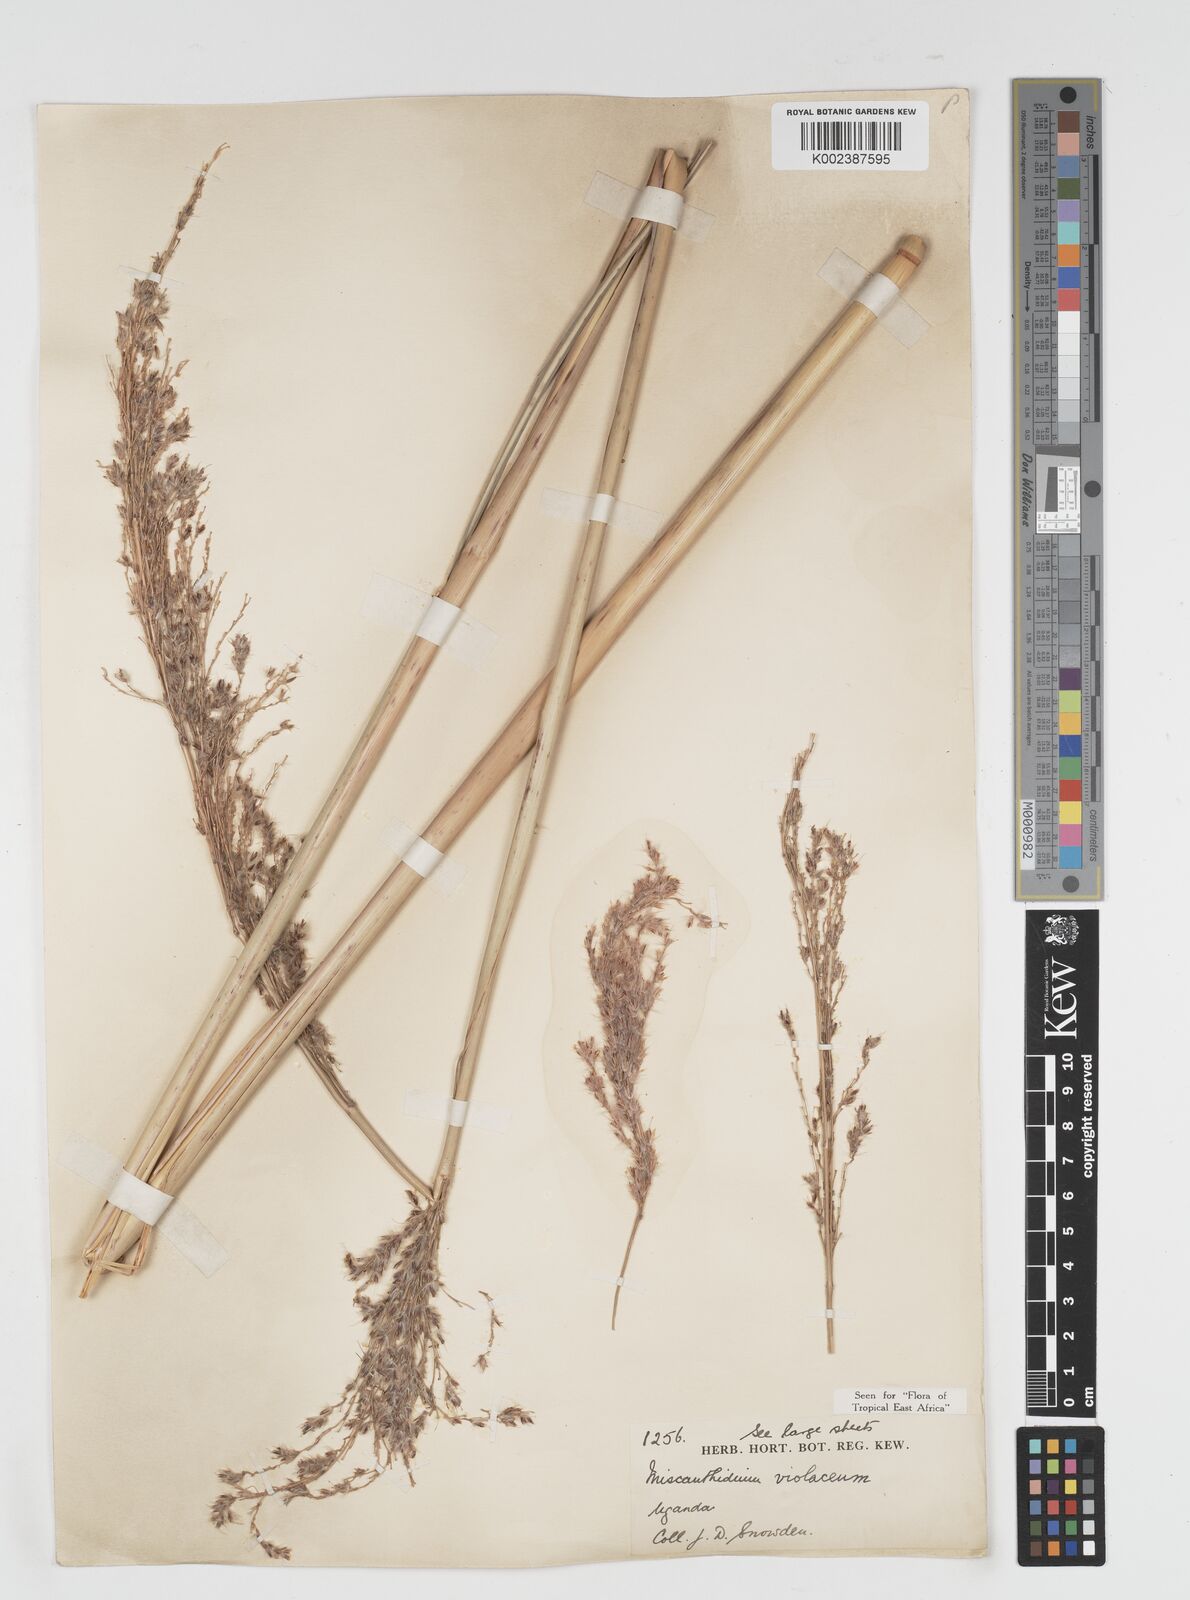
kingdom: Plantae
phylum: Tracheophyta
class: Liliopsida
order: Poales
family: Poaceae
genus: Miscanthidium
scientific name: Miscanthidium violaceum
